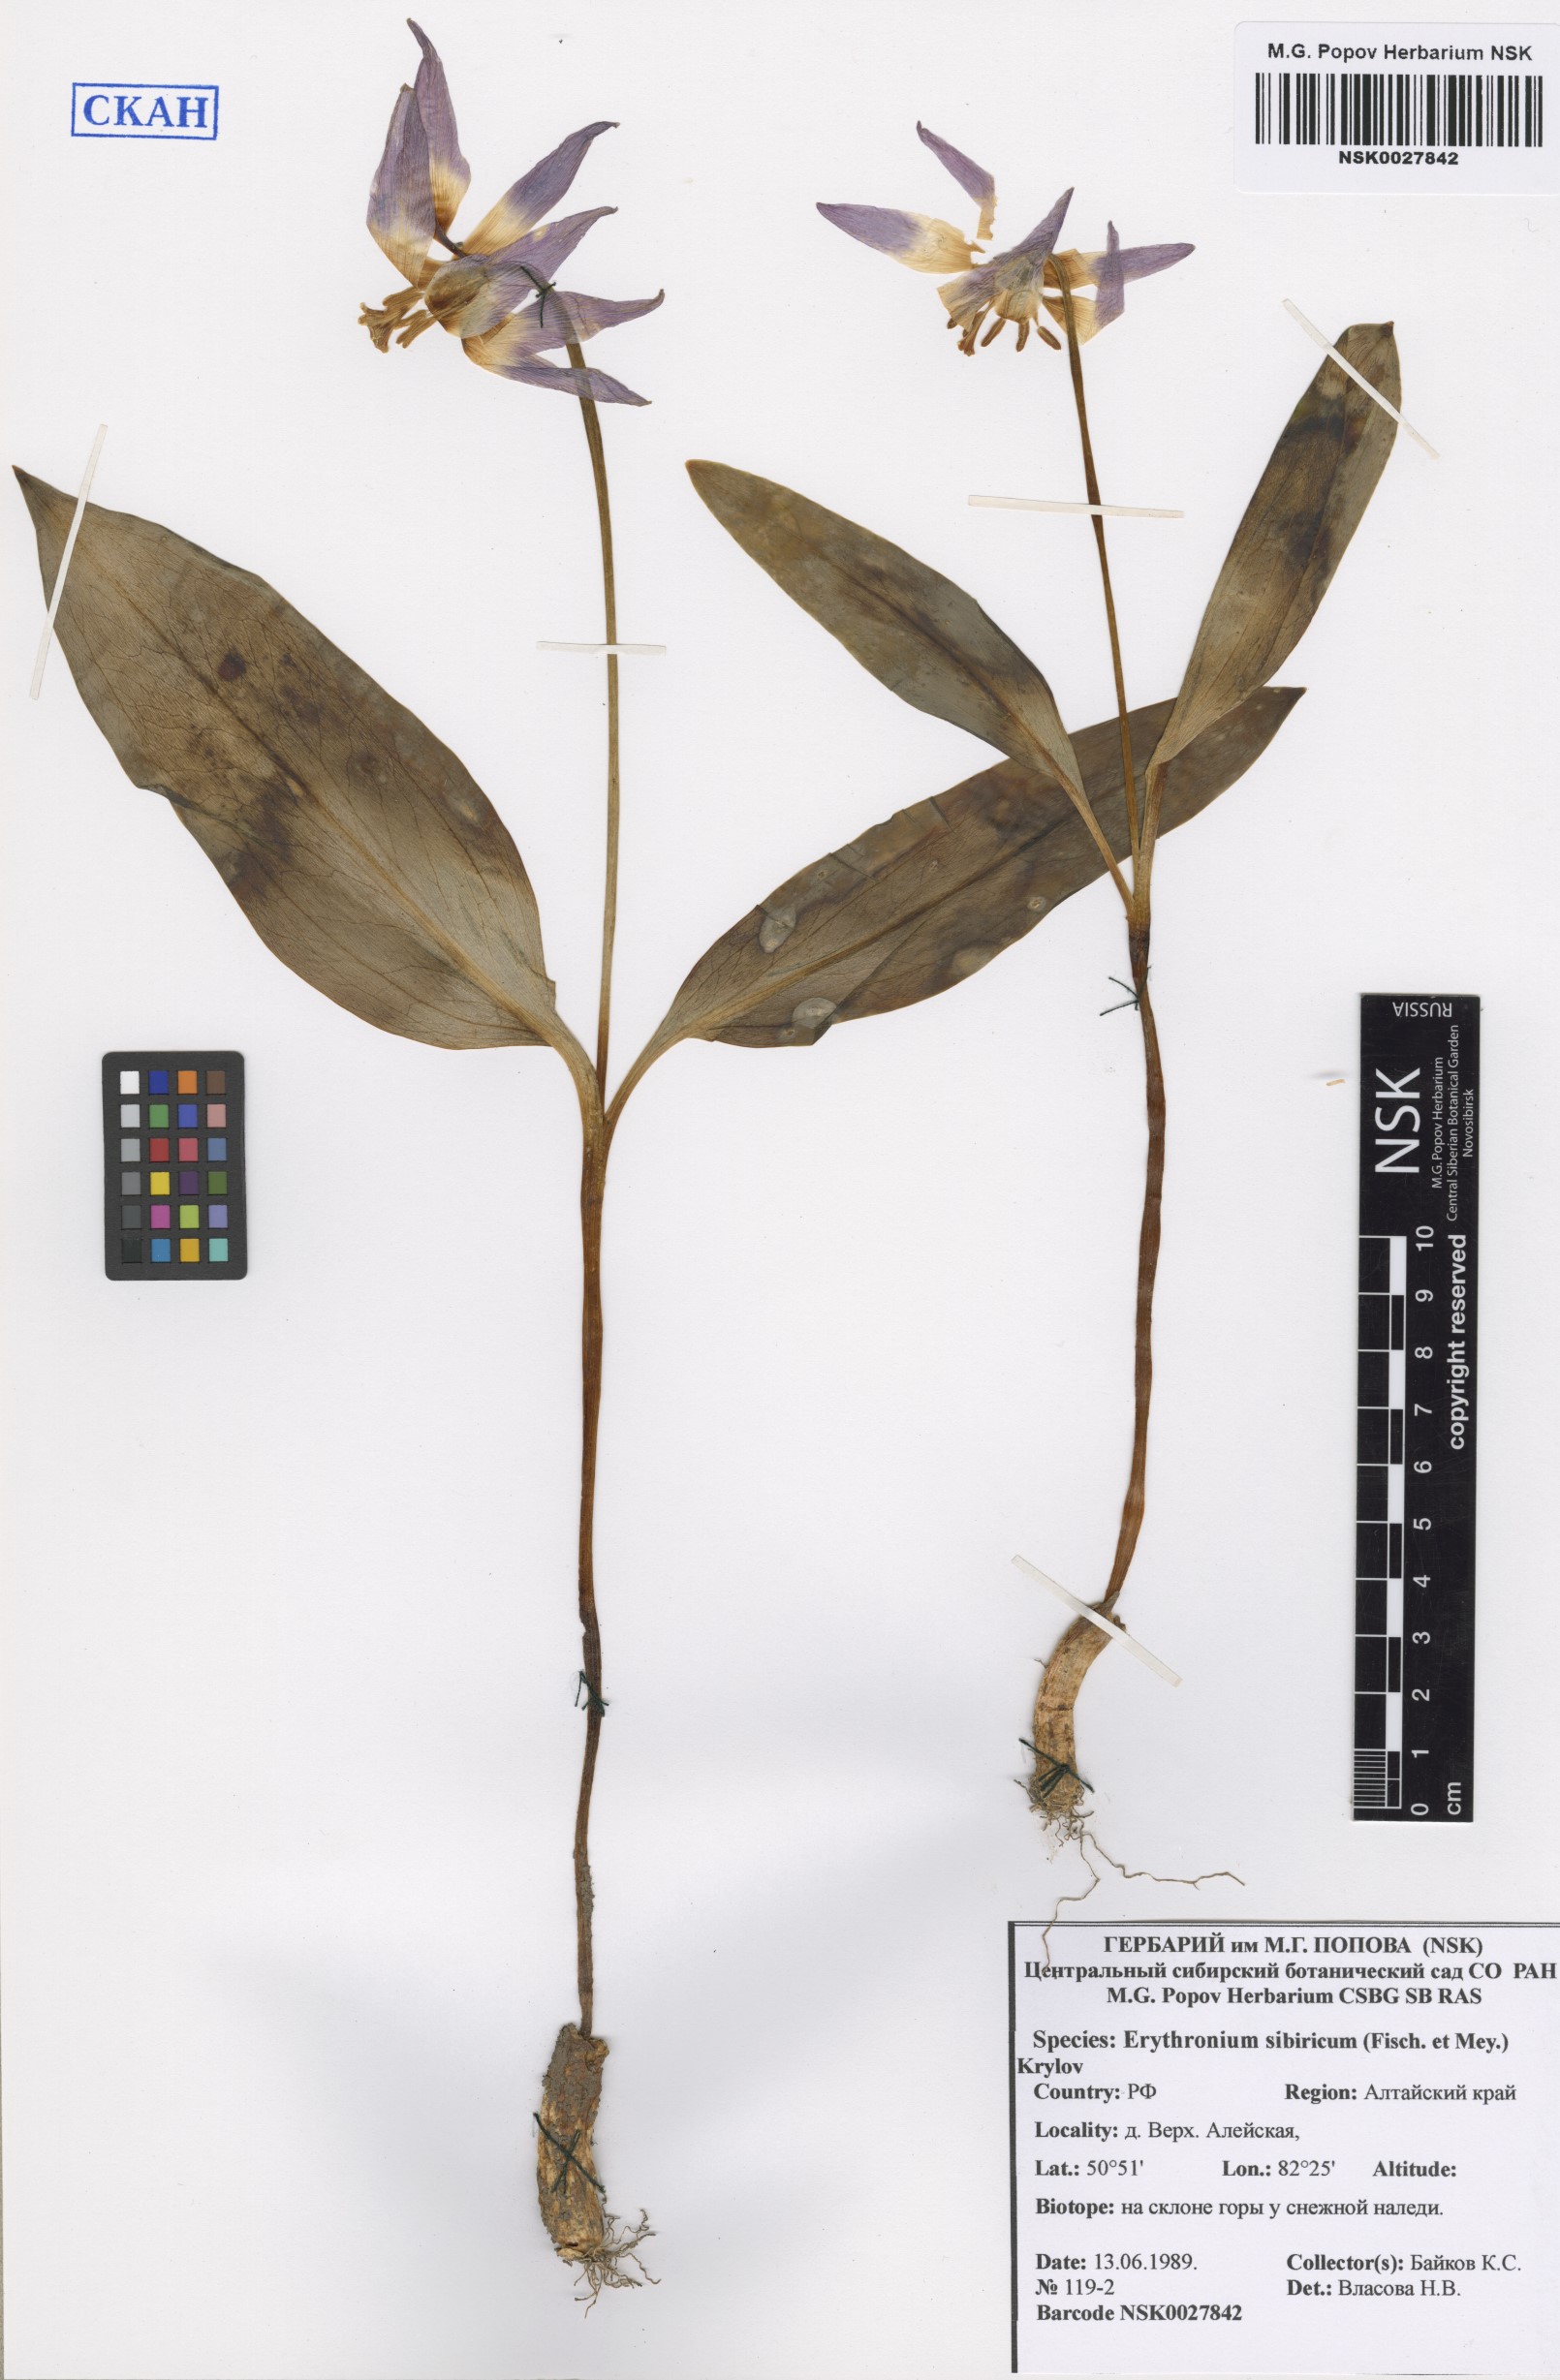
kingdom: Plantae
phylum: Tracheophyta
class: Liliopsida
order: Liliales
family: Liliaceae
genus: Erythronium
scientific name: Erythronium sibiricum
